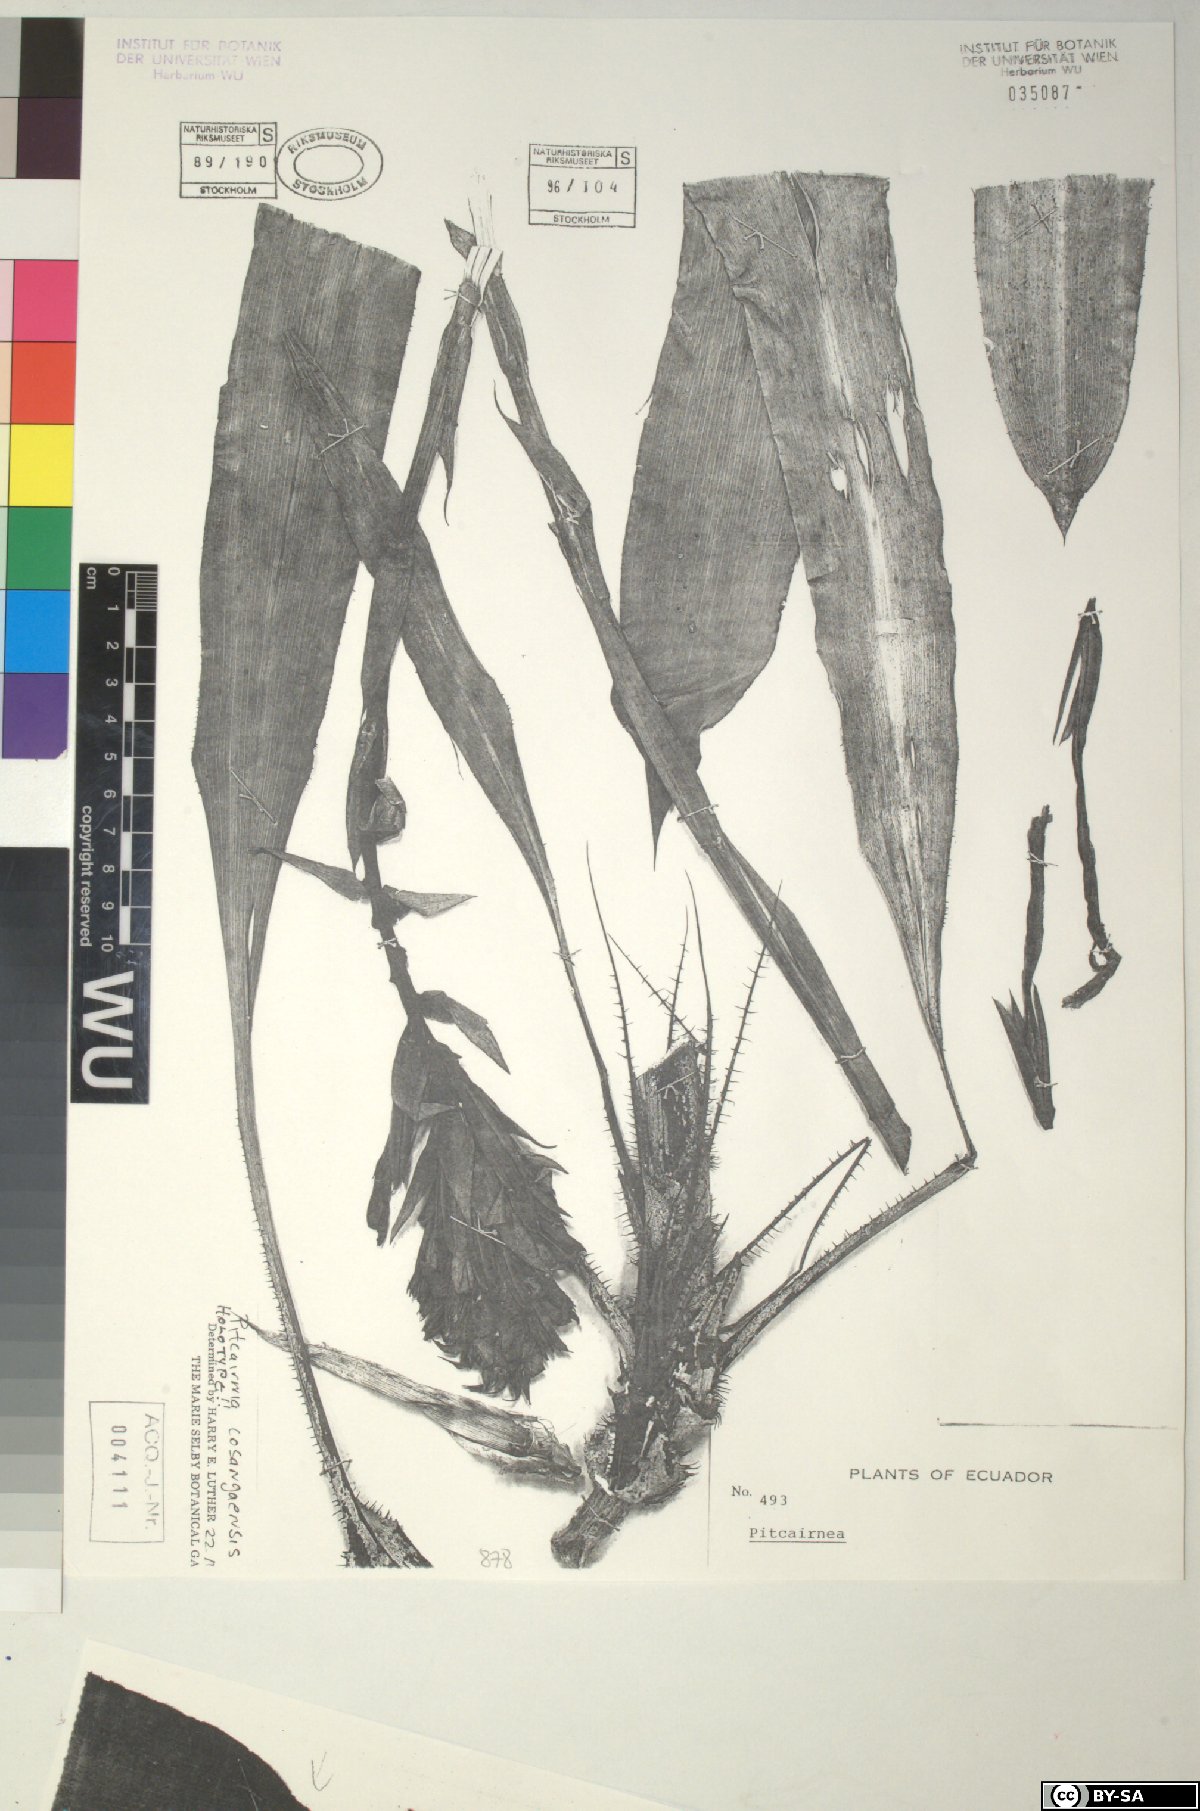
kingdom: Plantae
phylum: Tracheophyta
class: Liliopsida
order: Poales
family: Bromeliaceae
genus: Pitcairnia
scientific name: Pitcairnia cosangaensis
